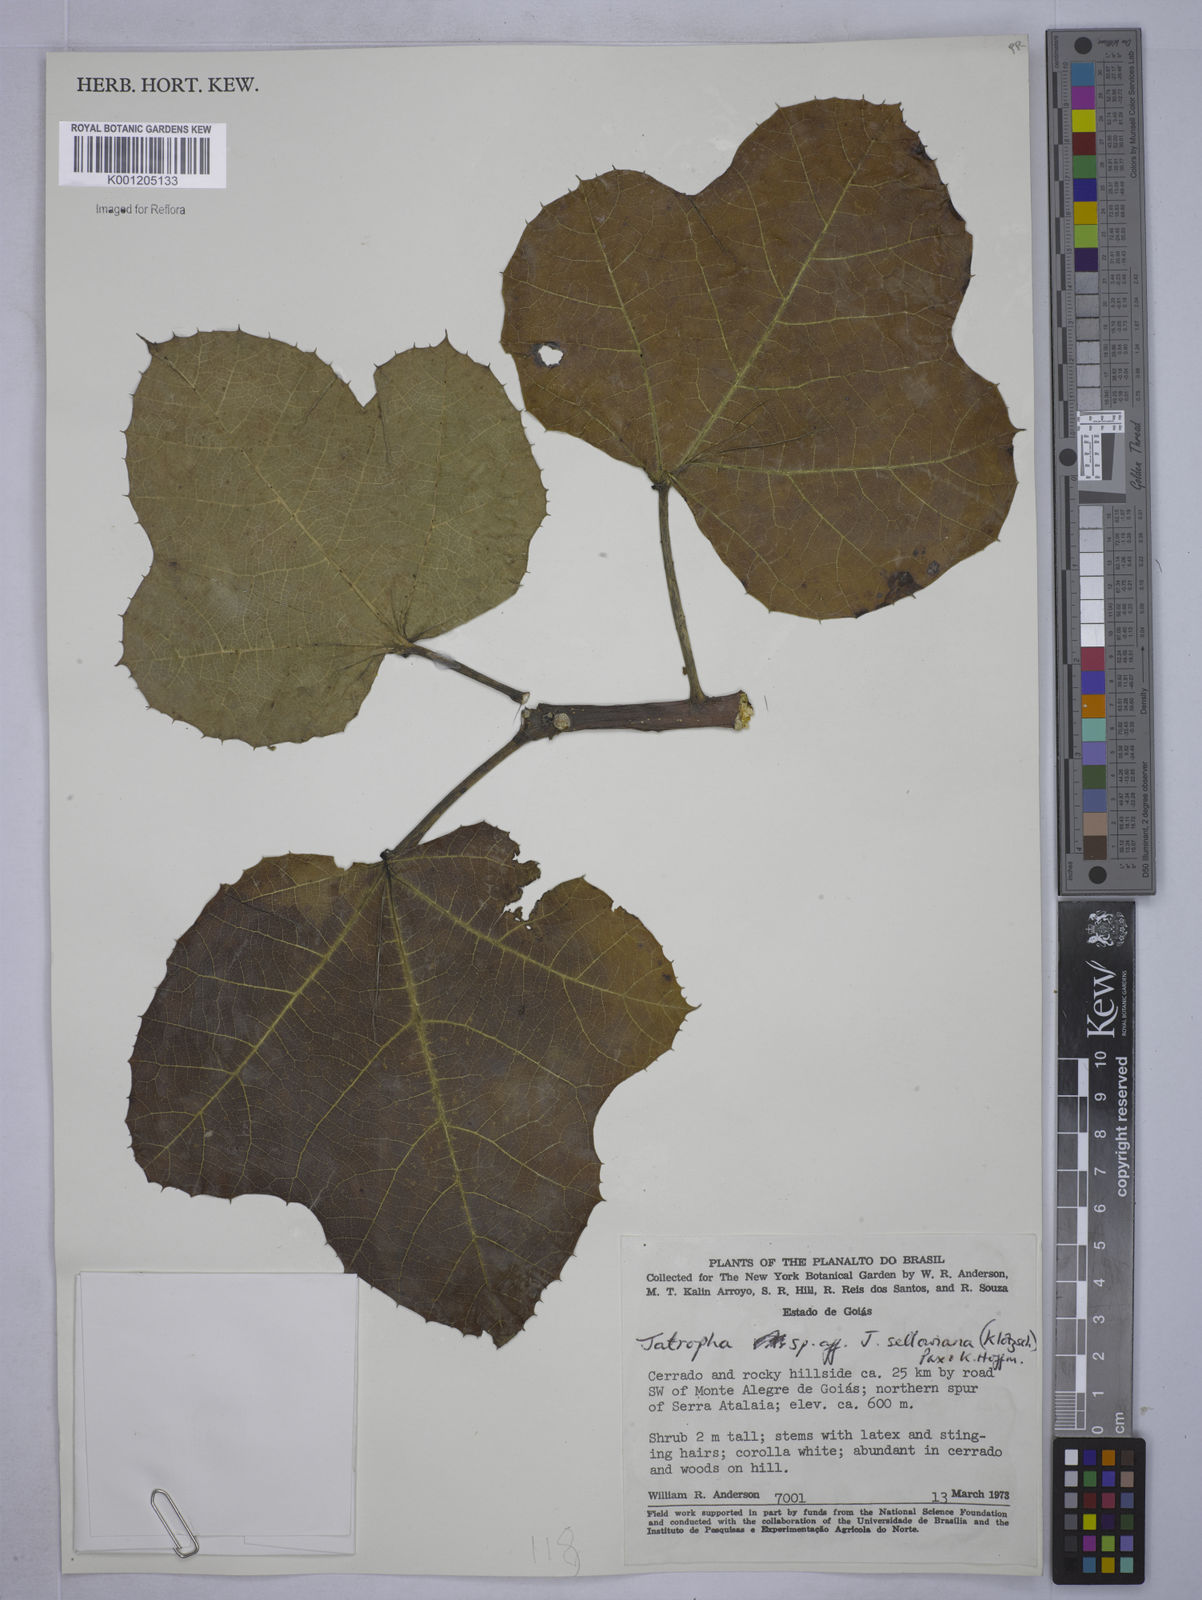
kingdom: Plantae
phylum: Tracheophyta
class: Magnoliopsida
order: Malpighiales
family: Euphorbiaceae
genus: Cnidoscolus
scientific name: Cnidoscolus sellowianus
